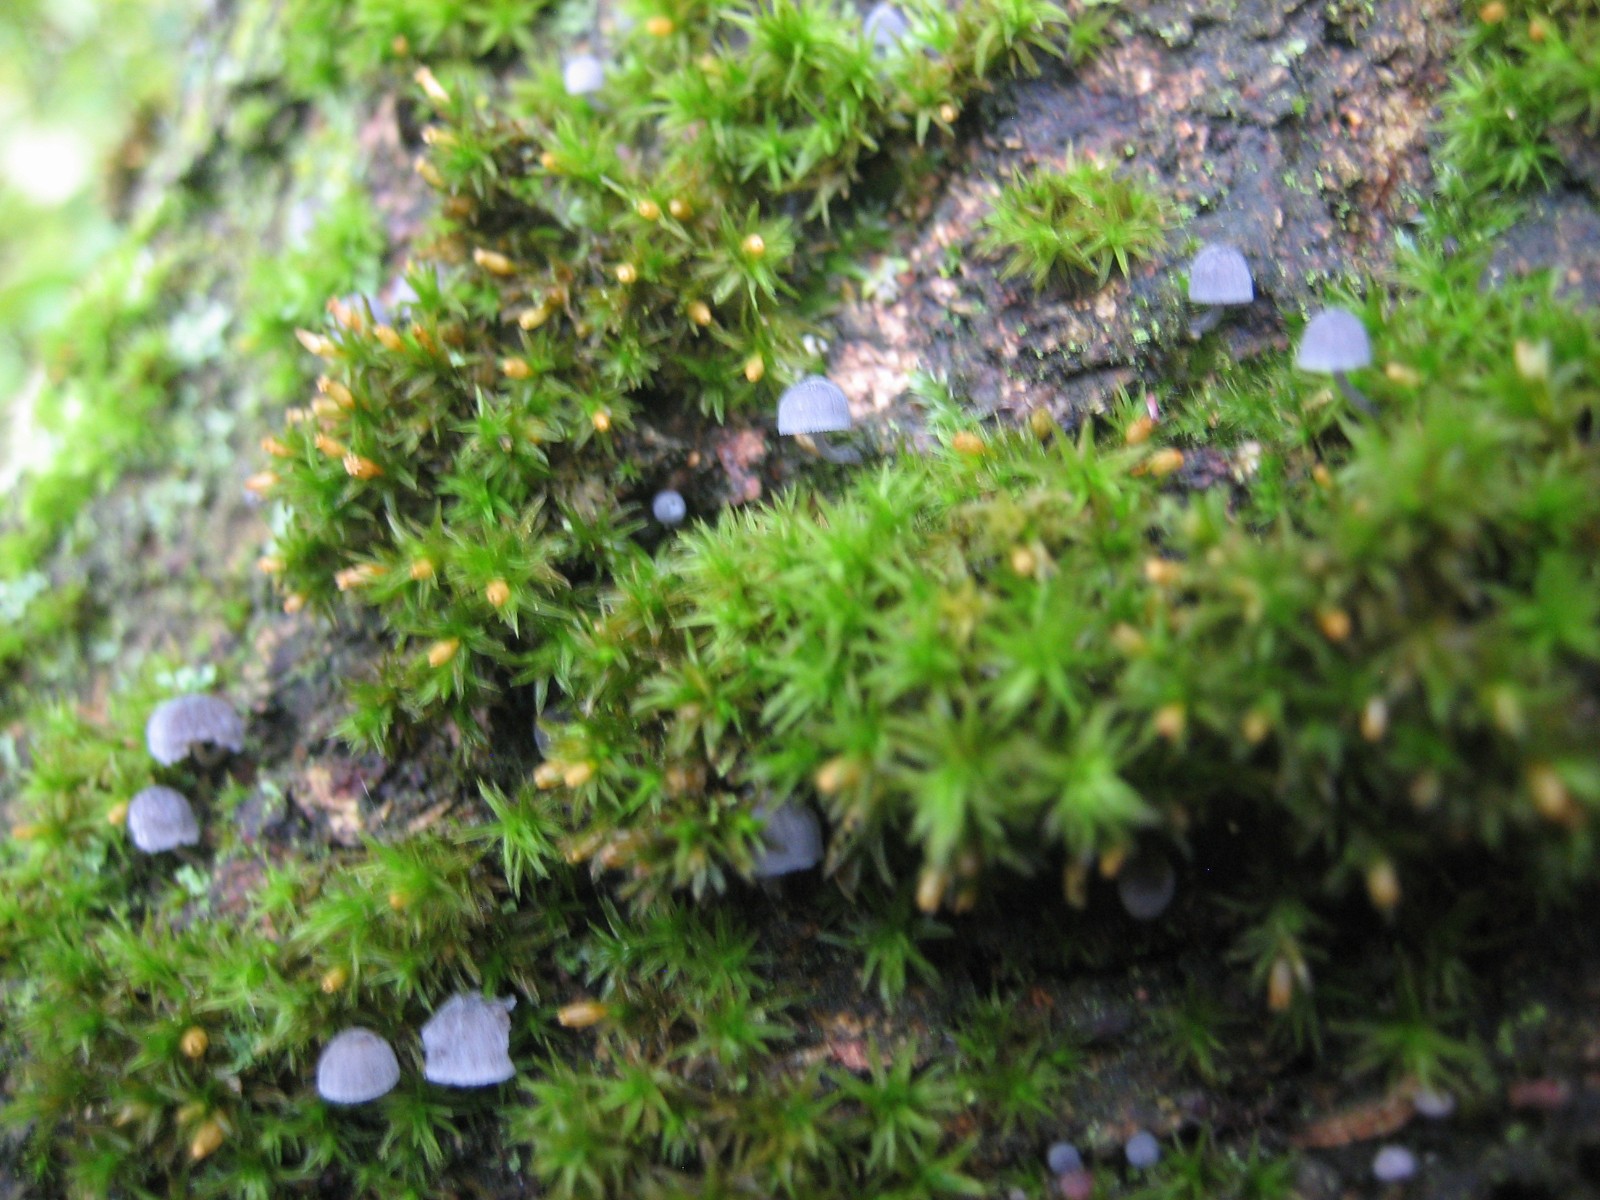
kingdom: Fungi
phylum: Basidiomycota
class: Agaricomycetes
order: Agaricales
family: Mycenaceae
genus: Mycena
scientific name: Mycena pseudocorticola
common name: gråblå bark-huesvamp
